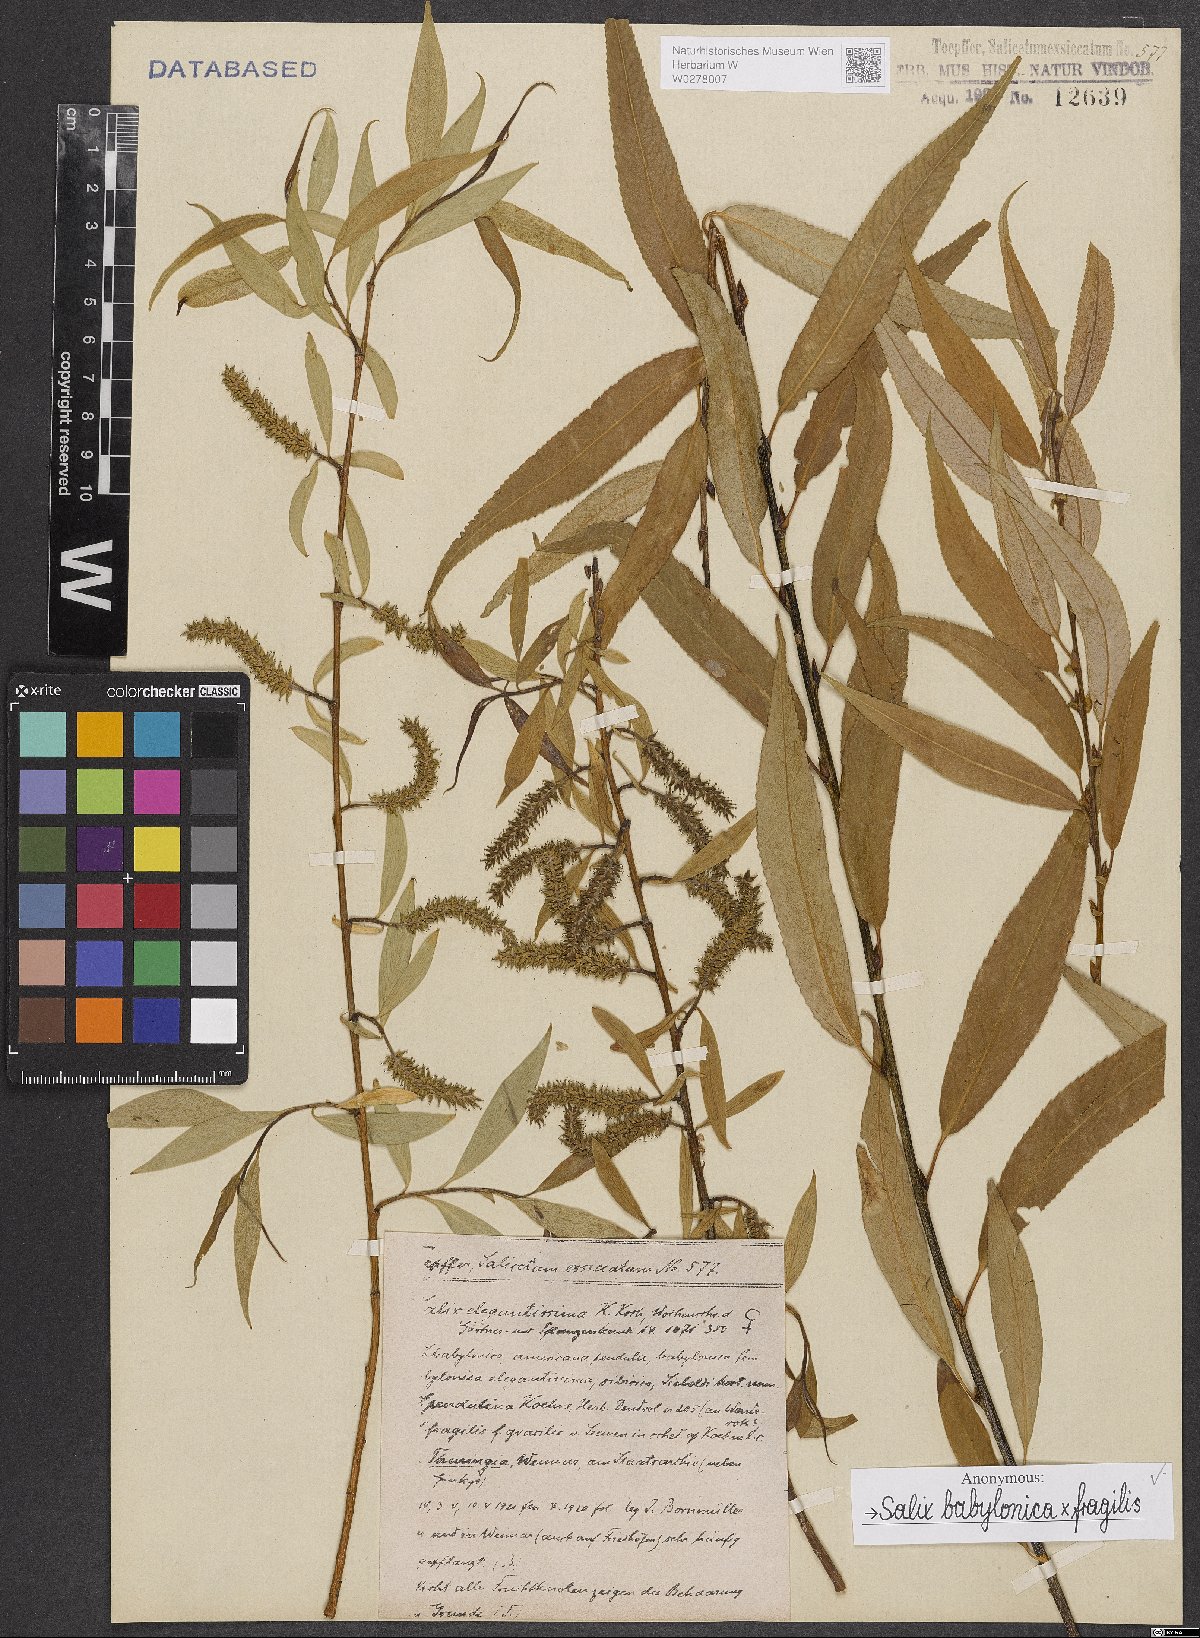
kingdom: Plantae
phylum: Tracheophyta
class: Magnoliopsida
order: Malpighiales
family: Salicaceae
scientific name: Salicaceae
